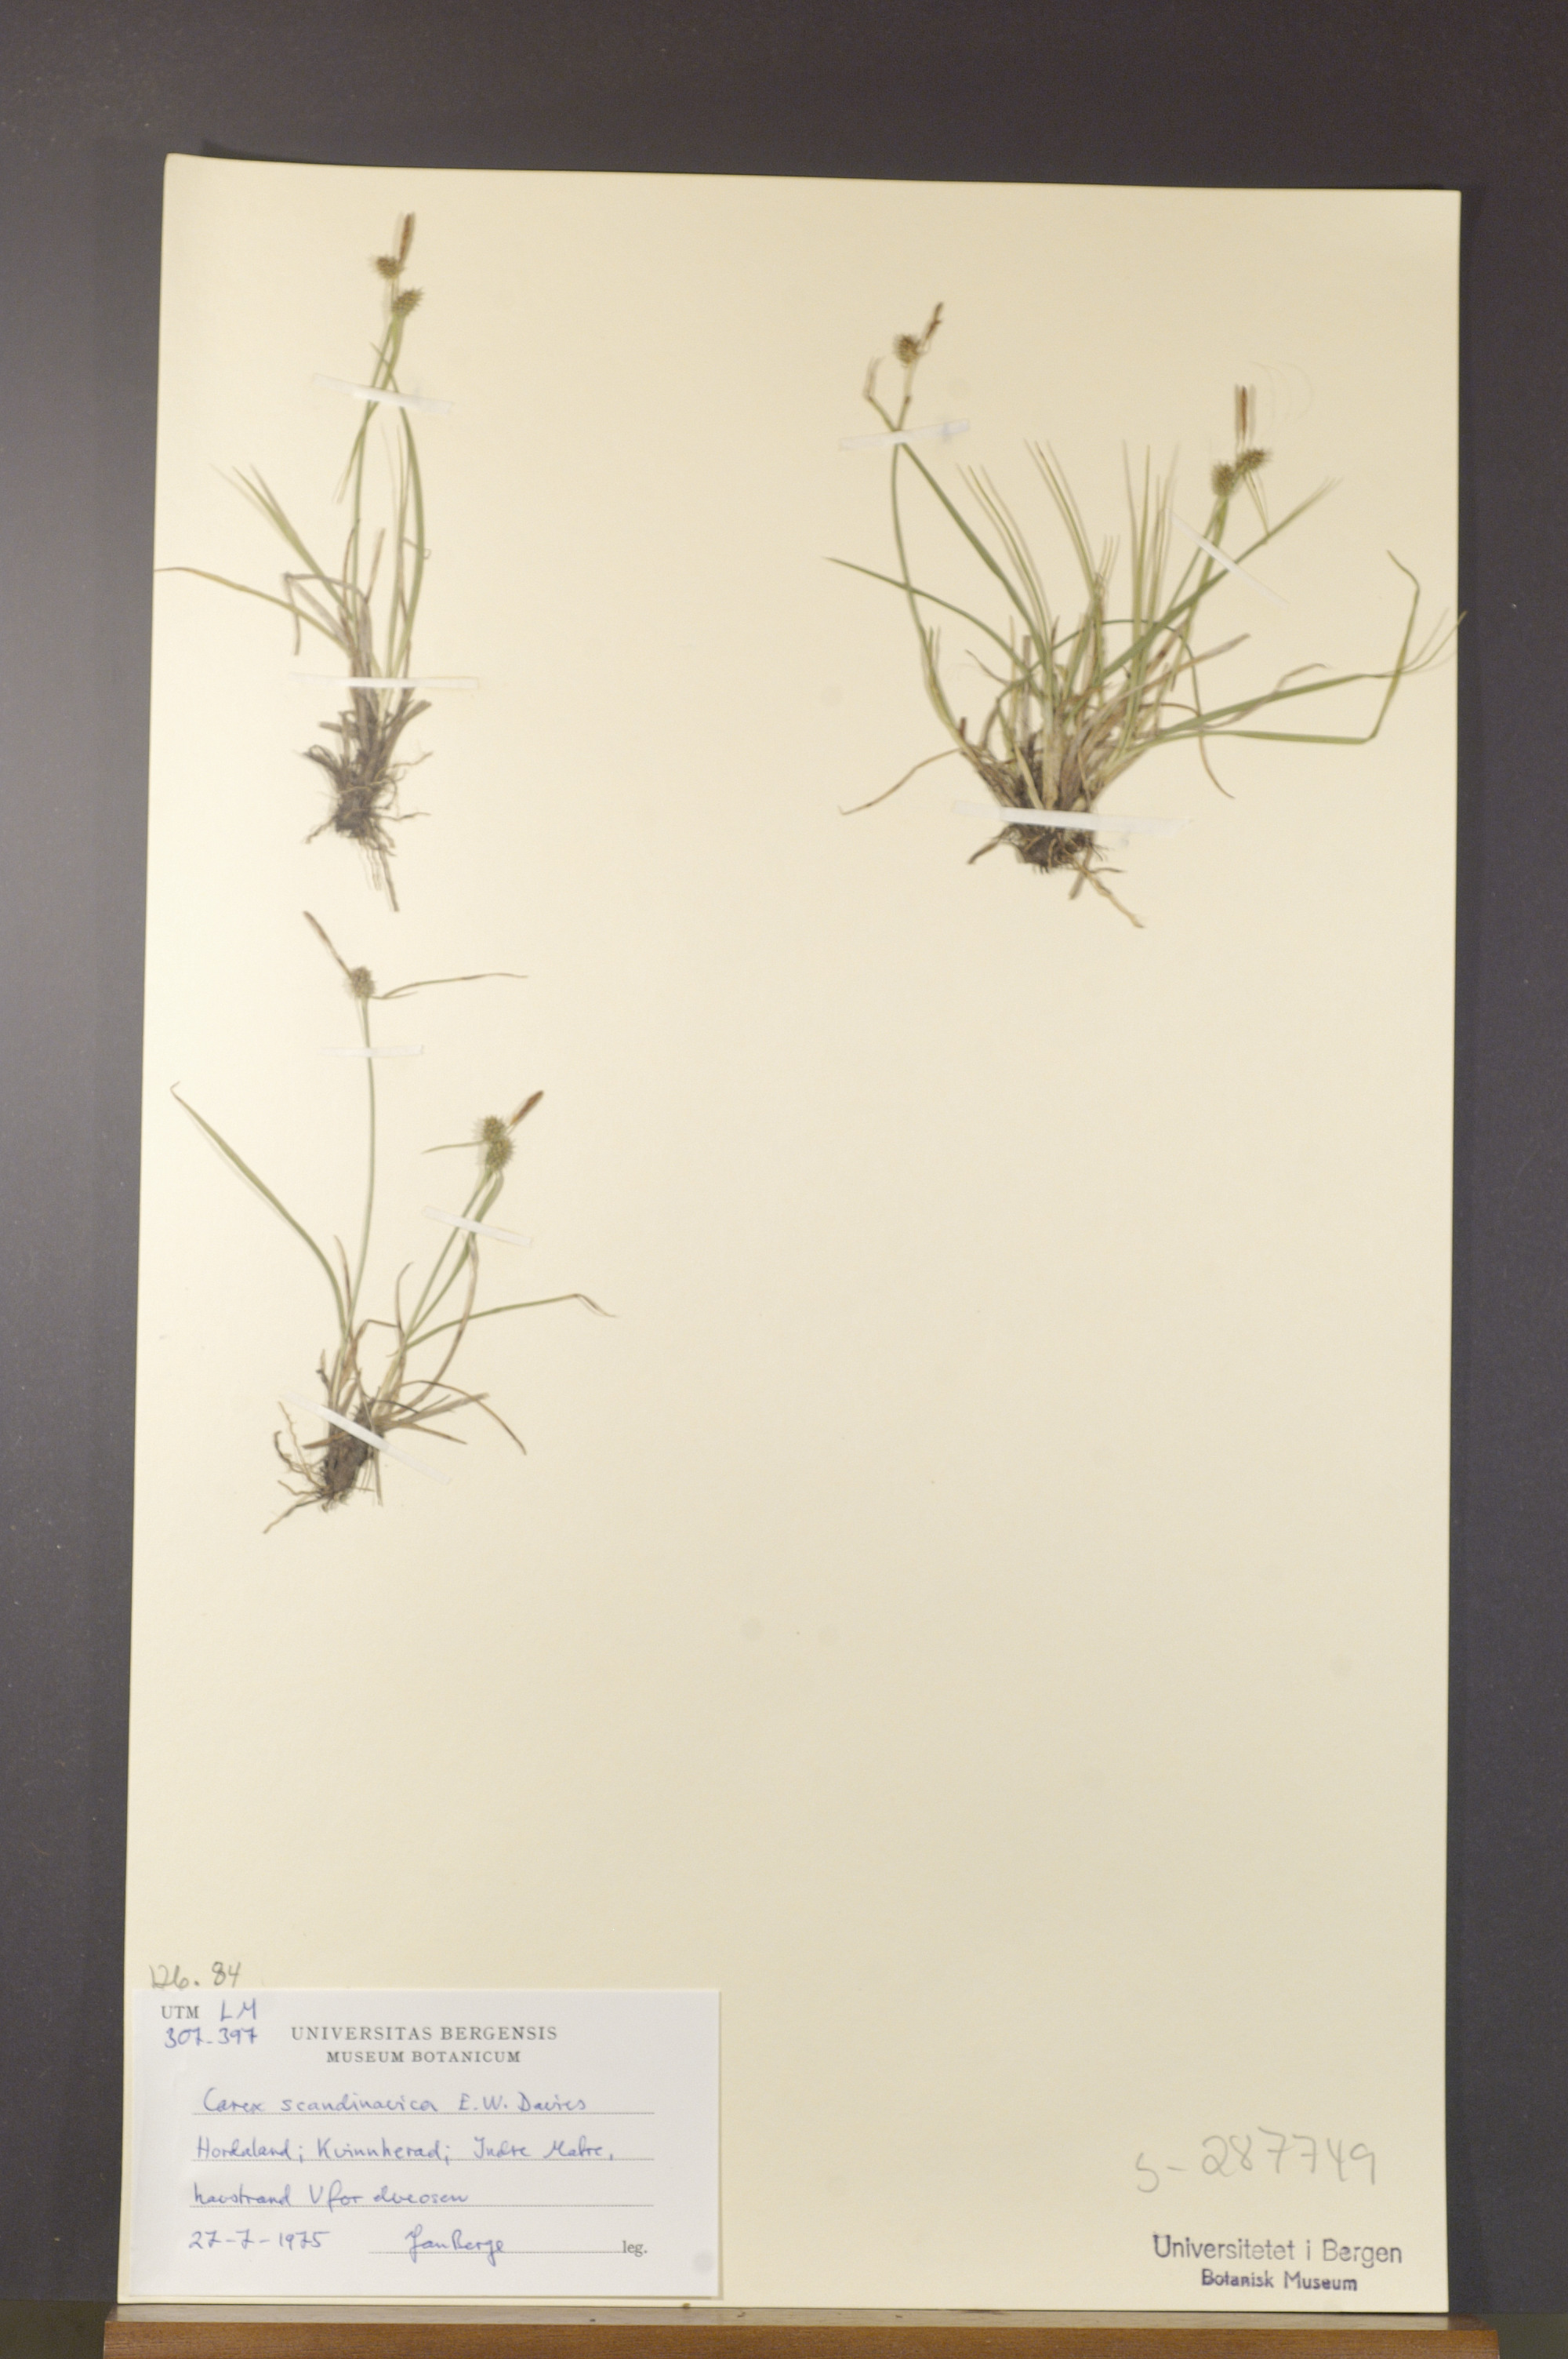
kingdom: Plantae
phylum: Tracheophyta
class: Liliopsida
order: Poales
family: Cyperaceae
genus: Carex
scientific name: Carex oederi
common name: Common & small-fruited yellow-sedge
